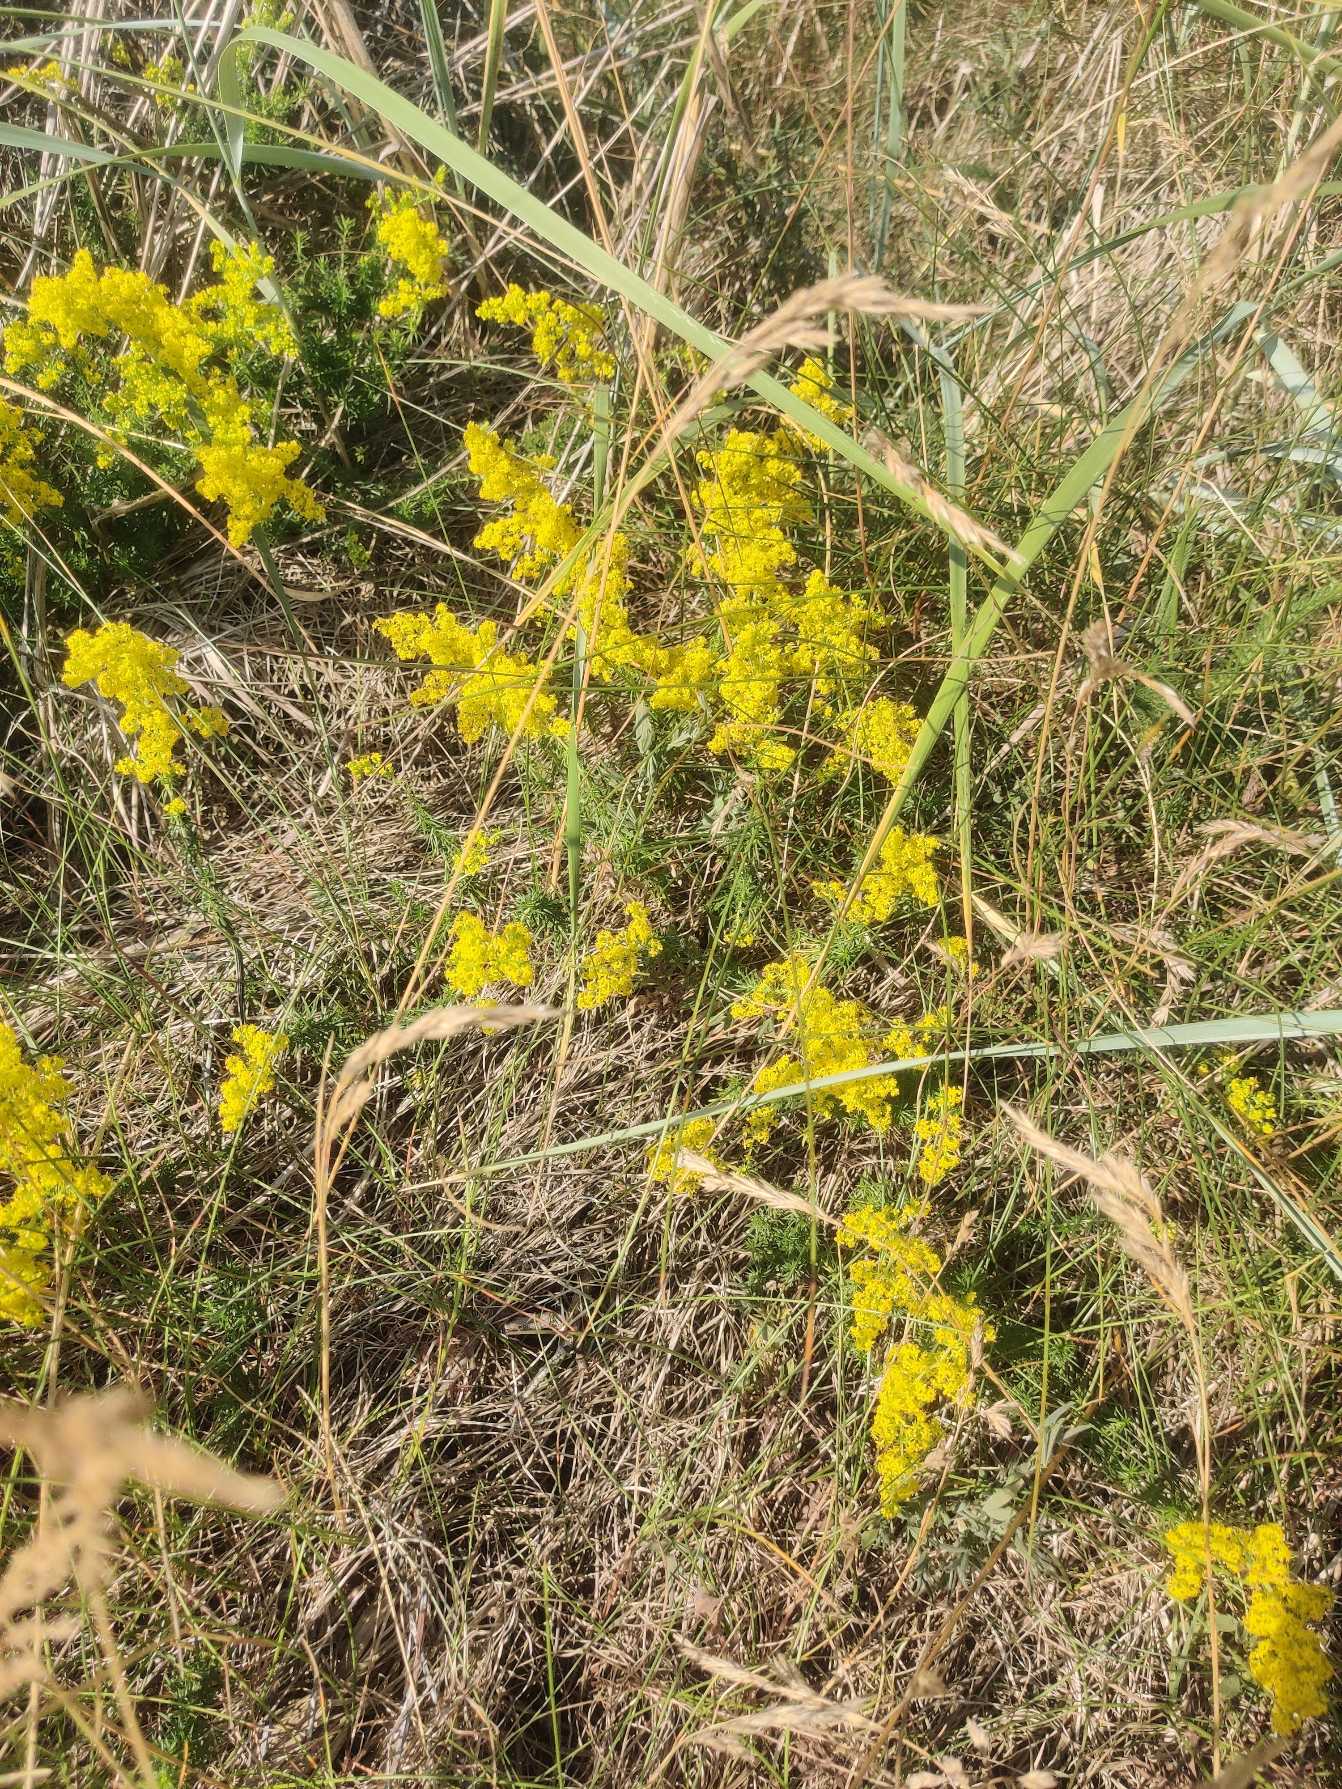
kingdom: Plantae
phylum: Tracheophyta
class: Magnoliopsida
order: Gentianales
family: Rubiaceae
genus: Galium
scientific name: Galium verum
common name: Gul snerre
